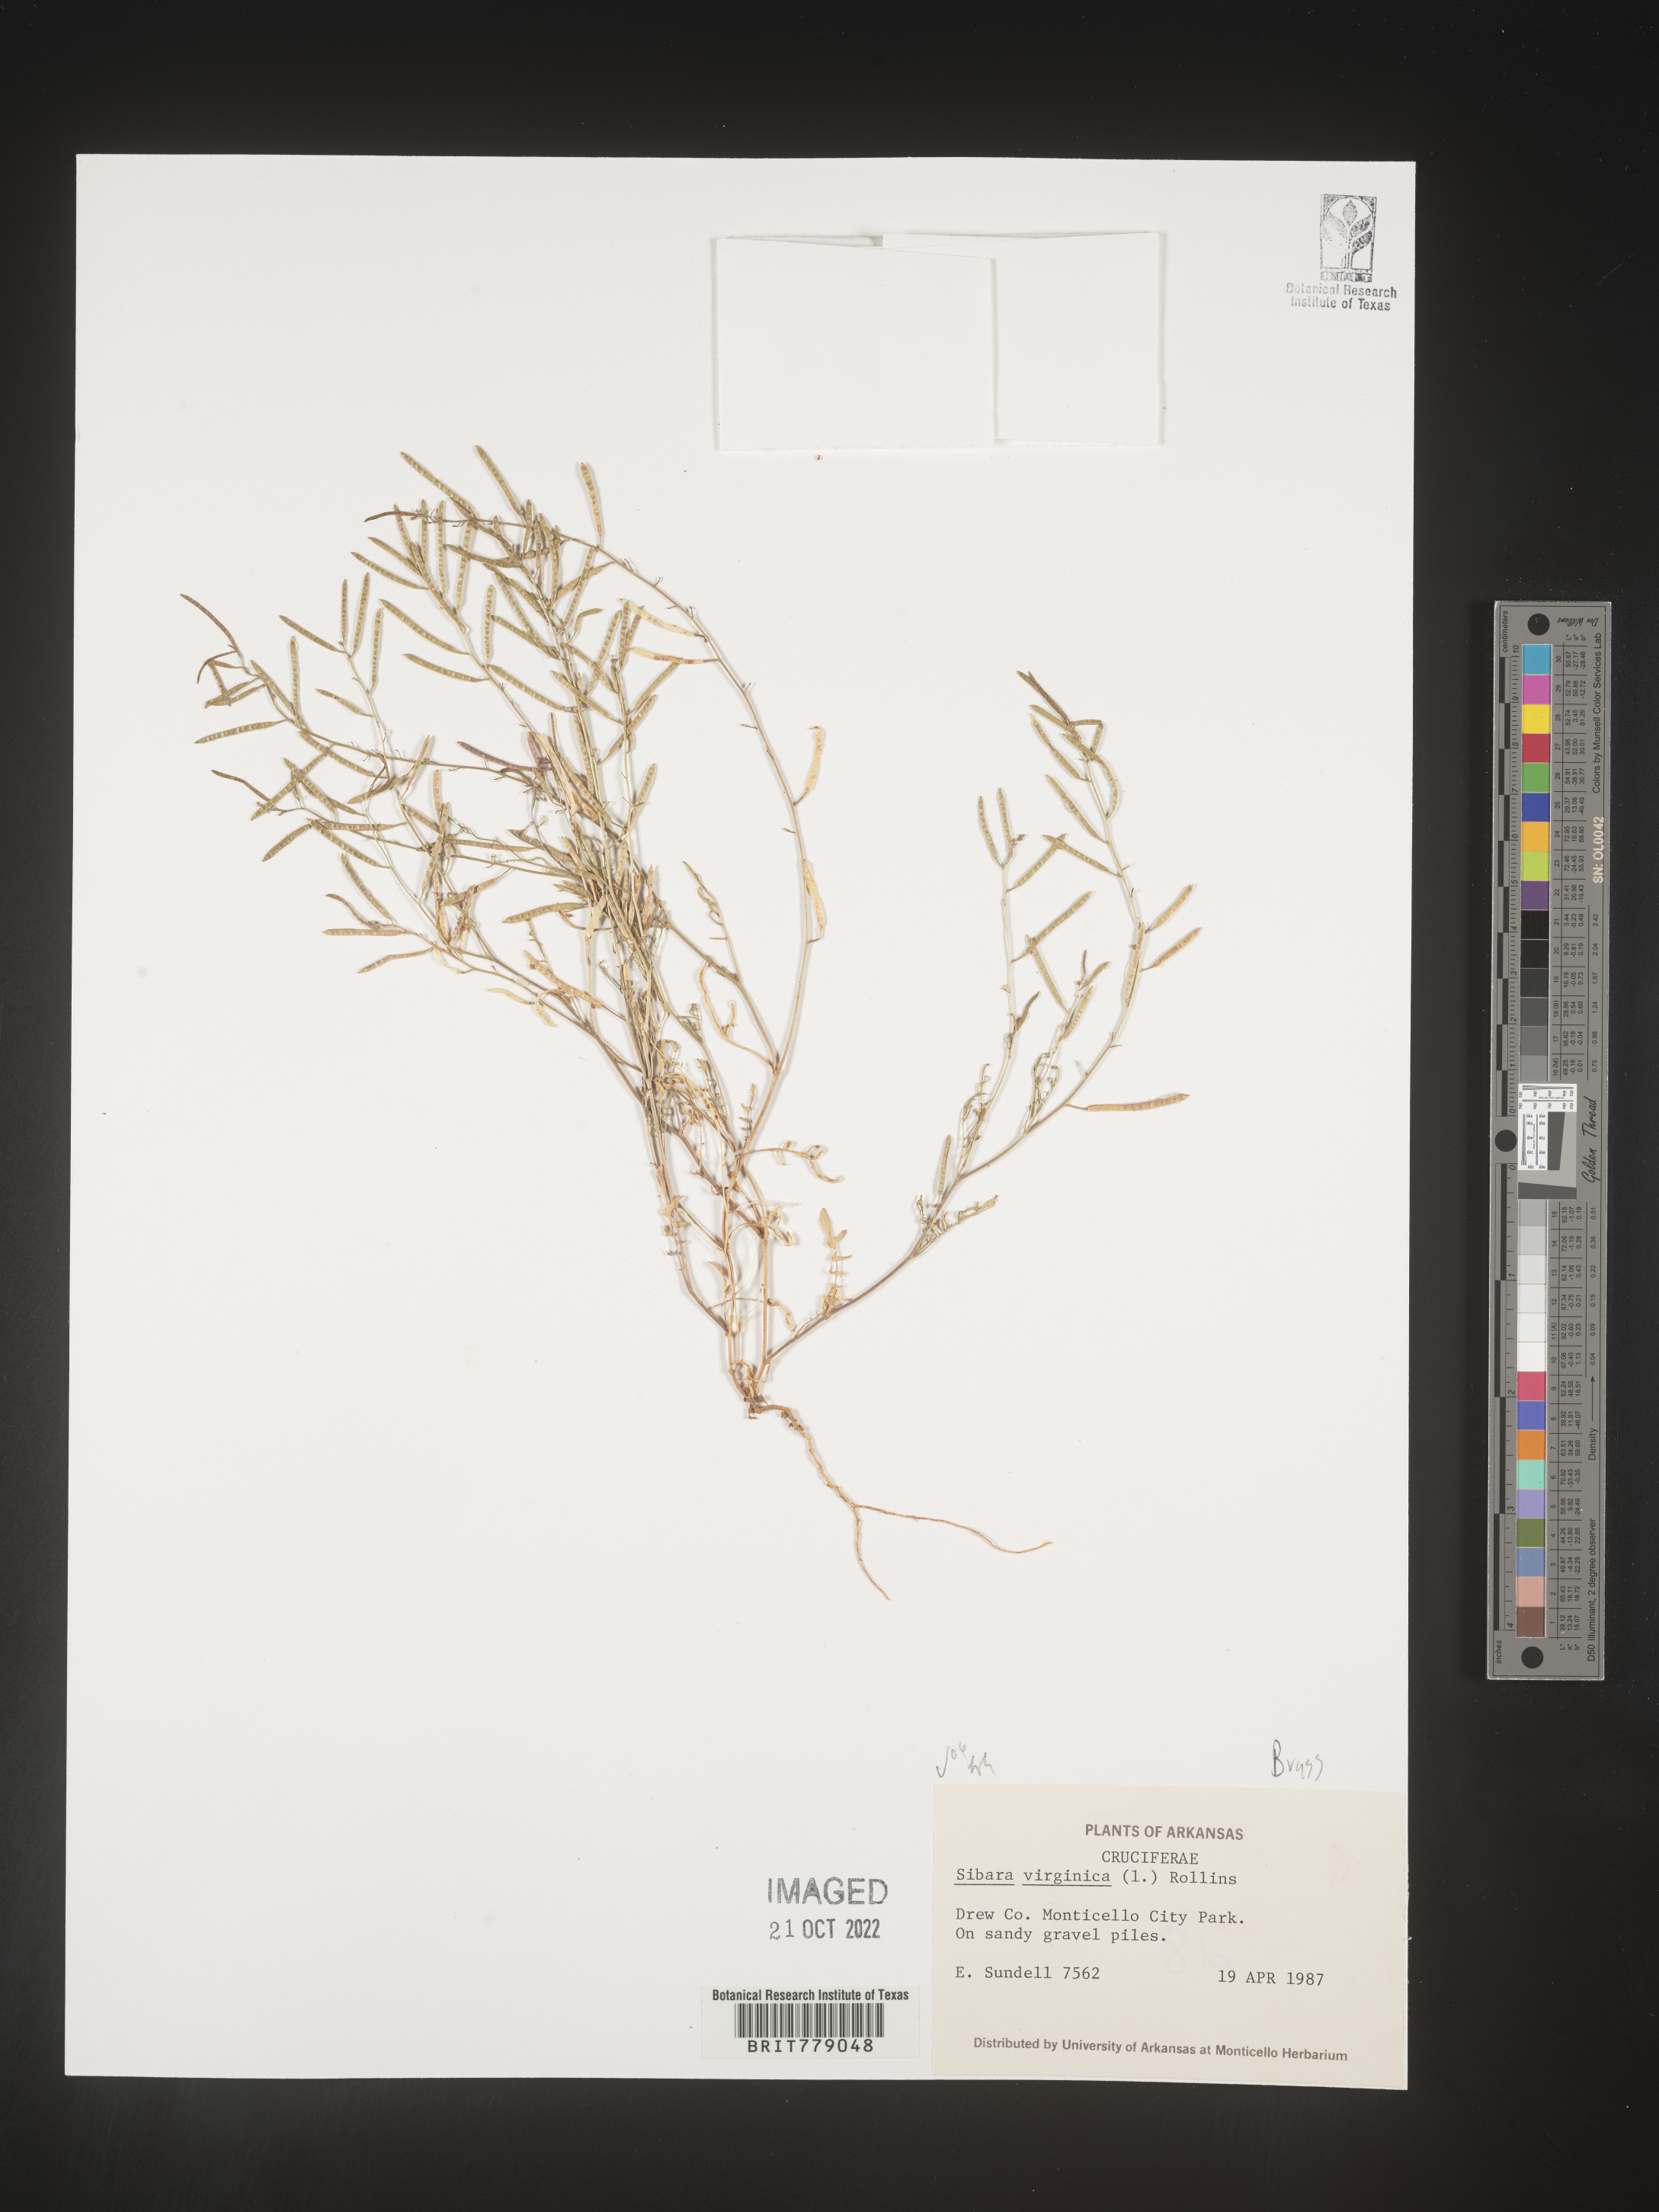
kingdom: Plantae
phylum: Tracheophyta
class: Magnoliopsida
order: Brassicales
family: Brassicaceae
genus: Sibara
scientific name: Sibara
